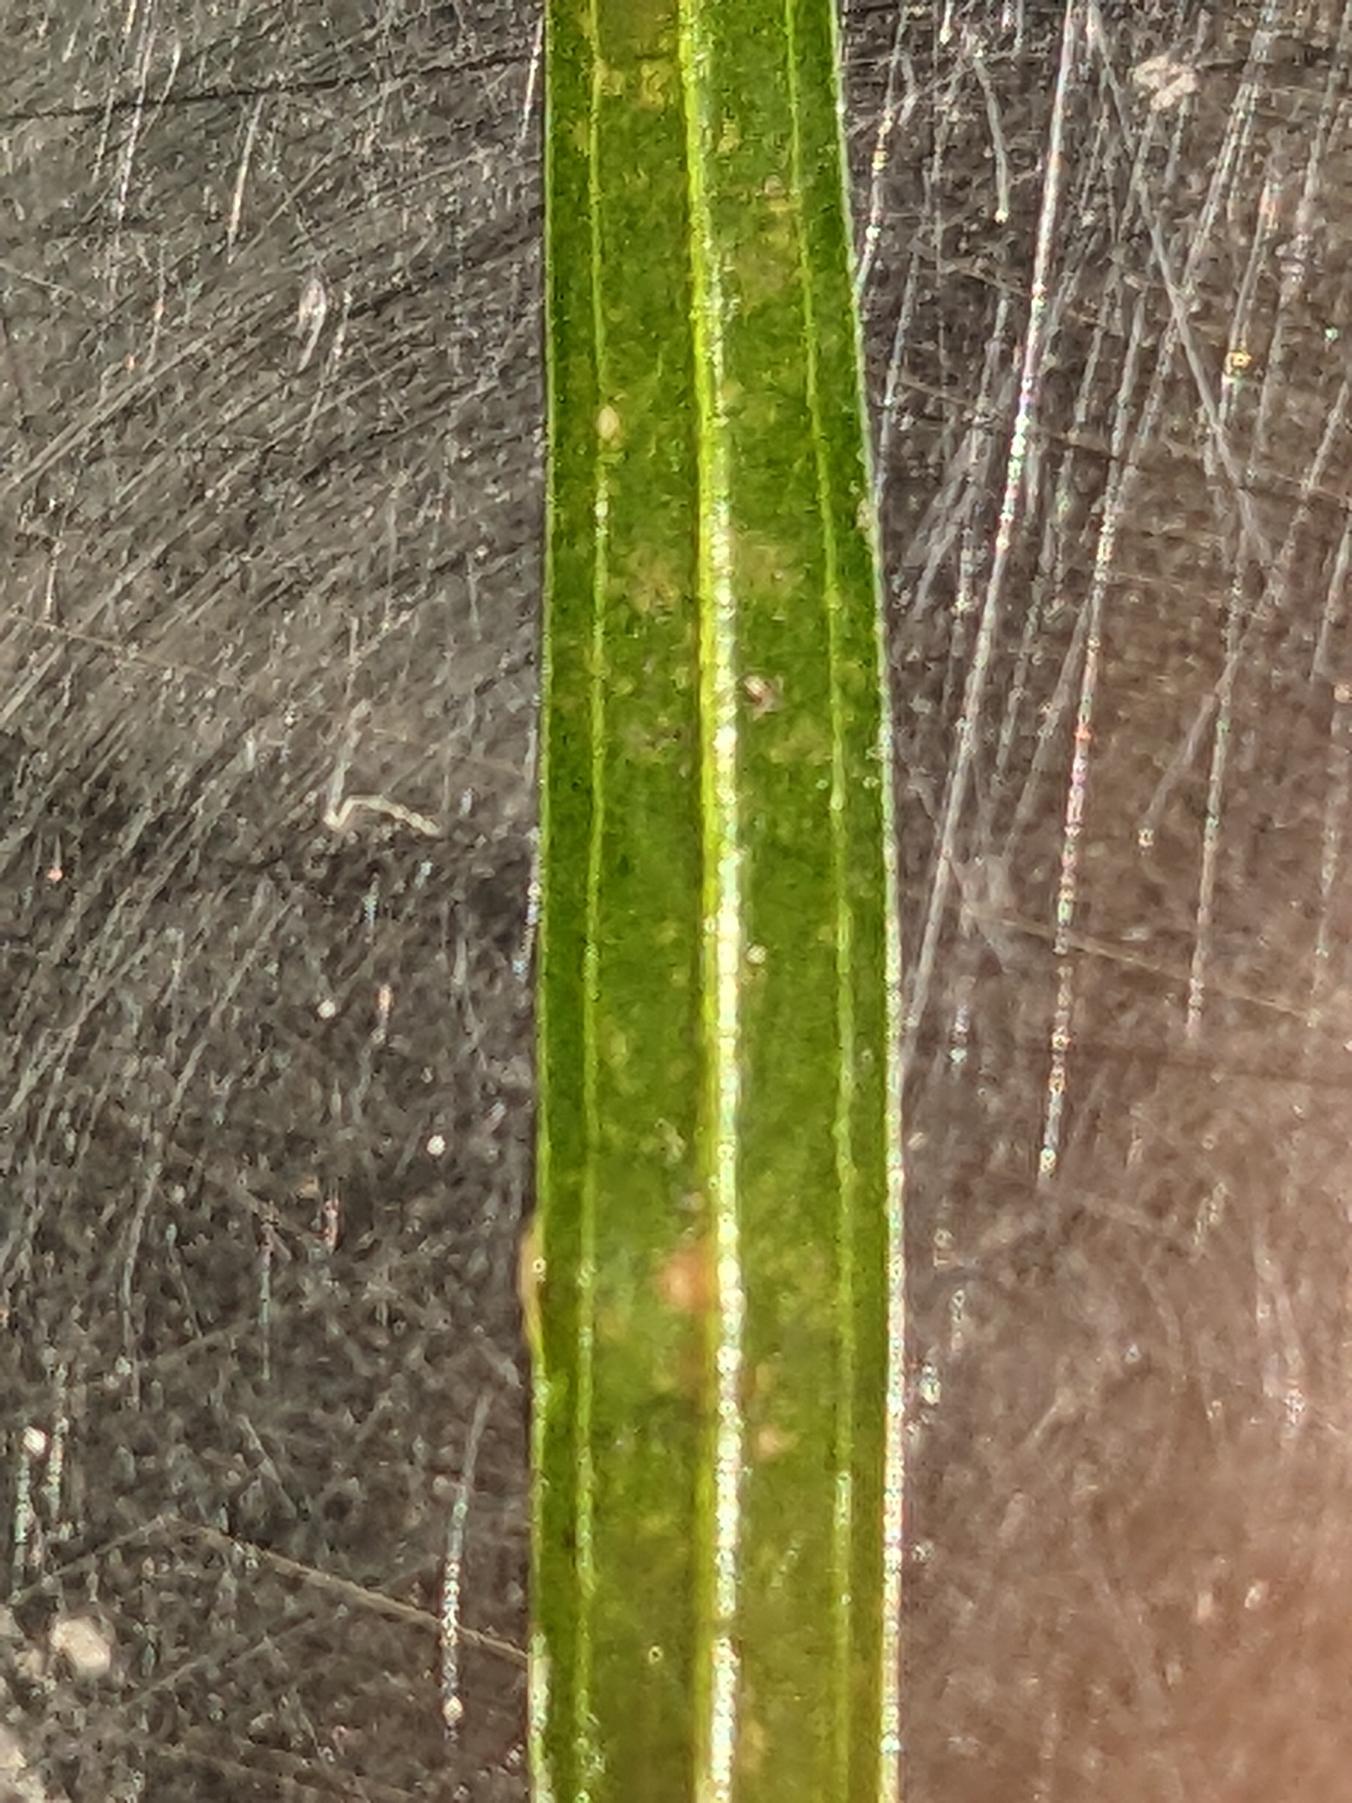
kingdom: Plantae
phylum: Tracheophyta
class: Liliopsida
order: Alismatales
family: Potamogetonaceae
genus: Potamogeton
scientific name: Potamogeton obtusifolius
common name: Butbladet vandaks
